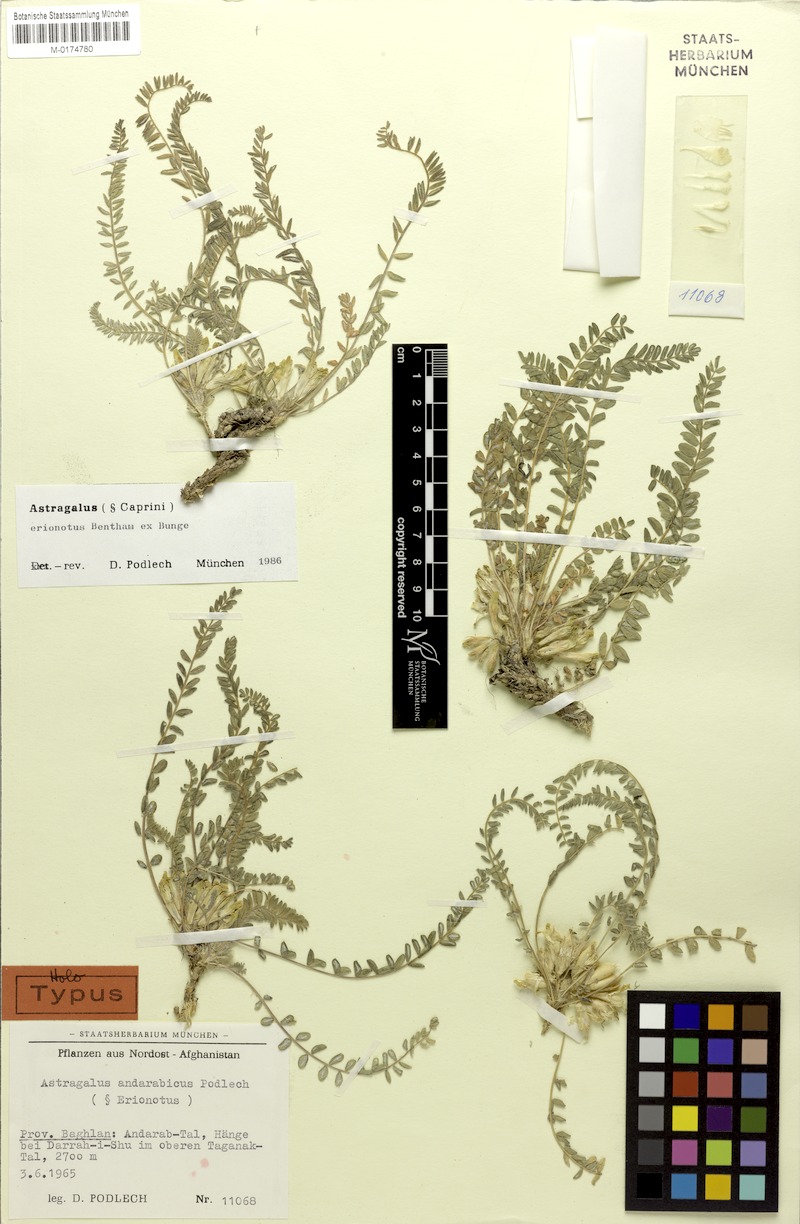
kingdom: Plantae
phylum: Tracheophyta
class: Magnoliopsida
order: Fabales
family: Fabaceae
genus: Astragalus
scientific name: Astragalus erionotus
